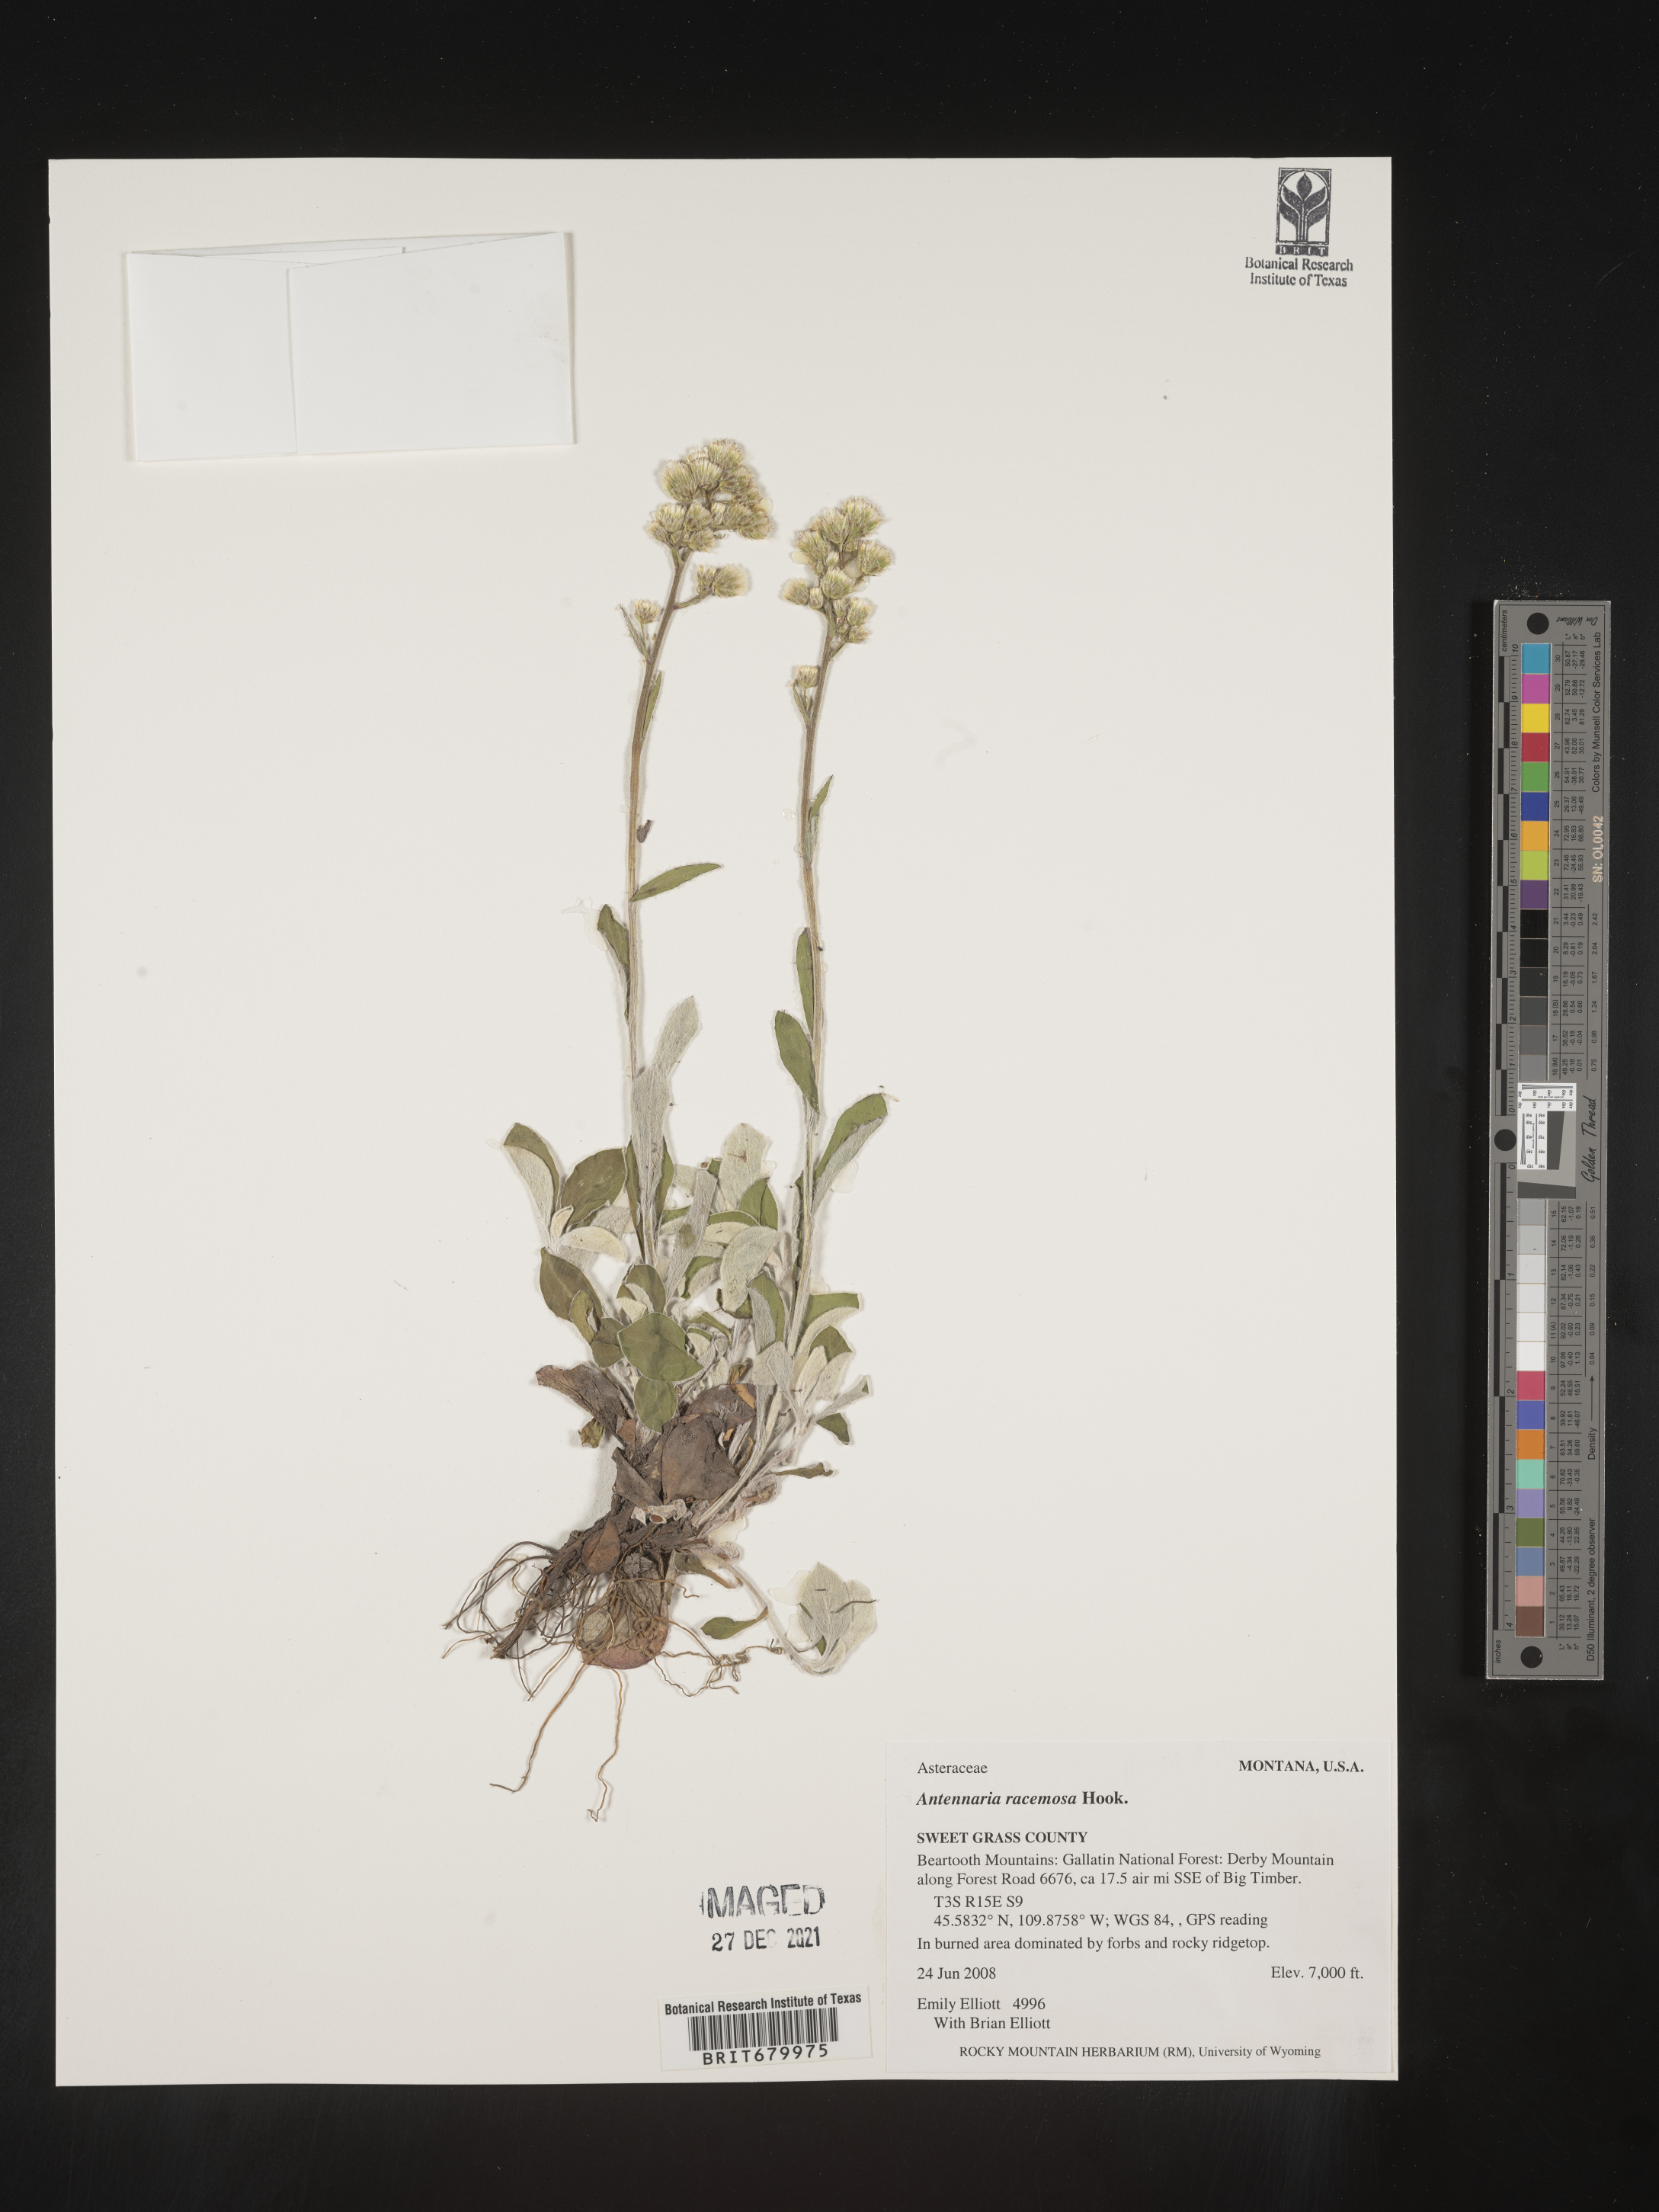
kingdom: Plantae
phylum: Tracheophyta
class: Magnoliopsida
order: Asterales
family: Asteraceae
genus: Antennaria
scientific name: Antennaria racemosa
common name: Racemose pussytoes
